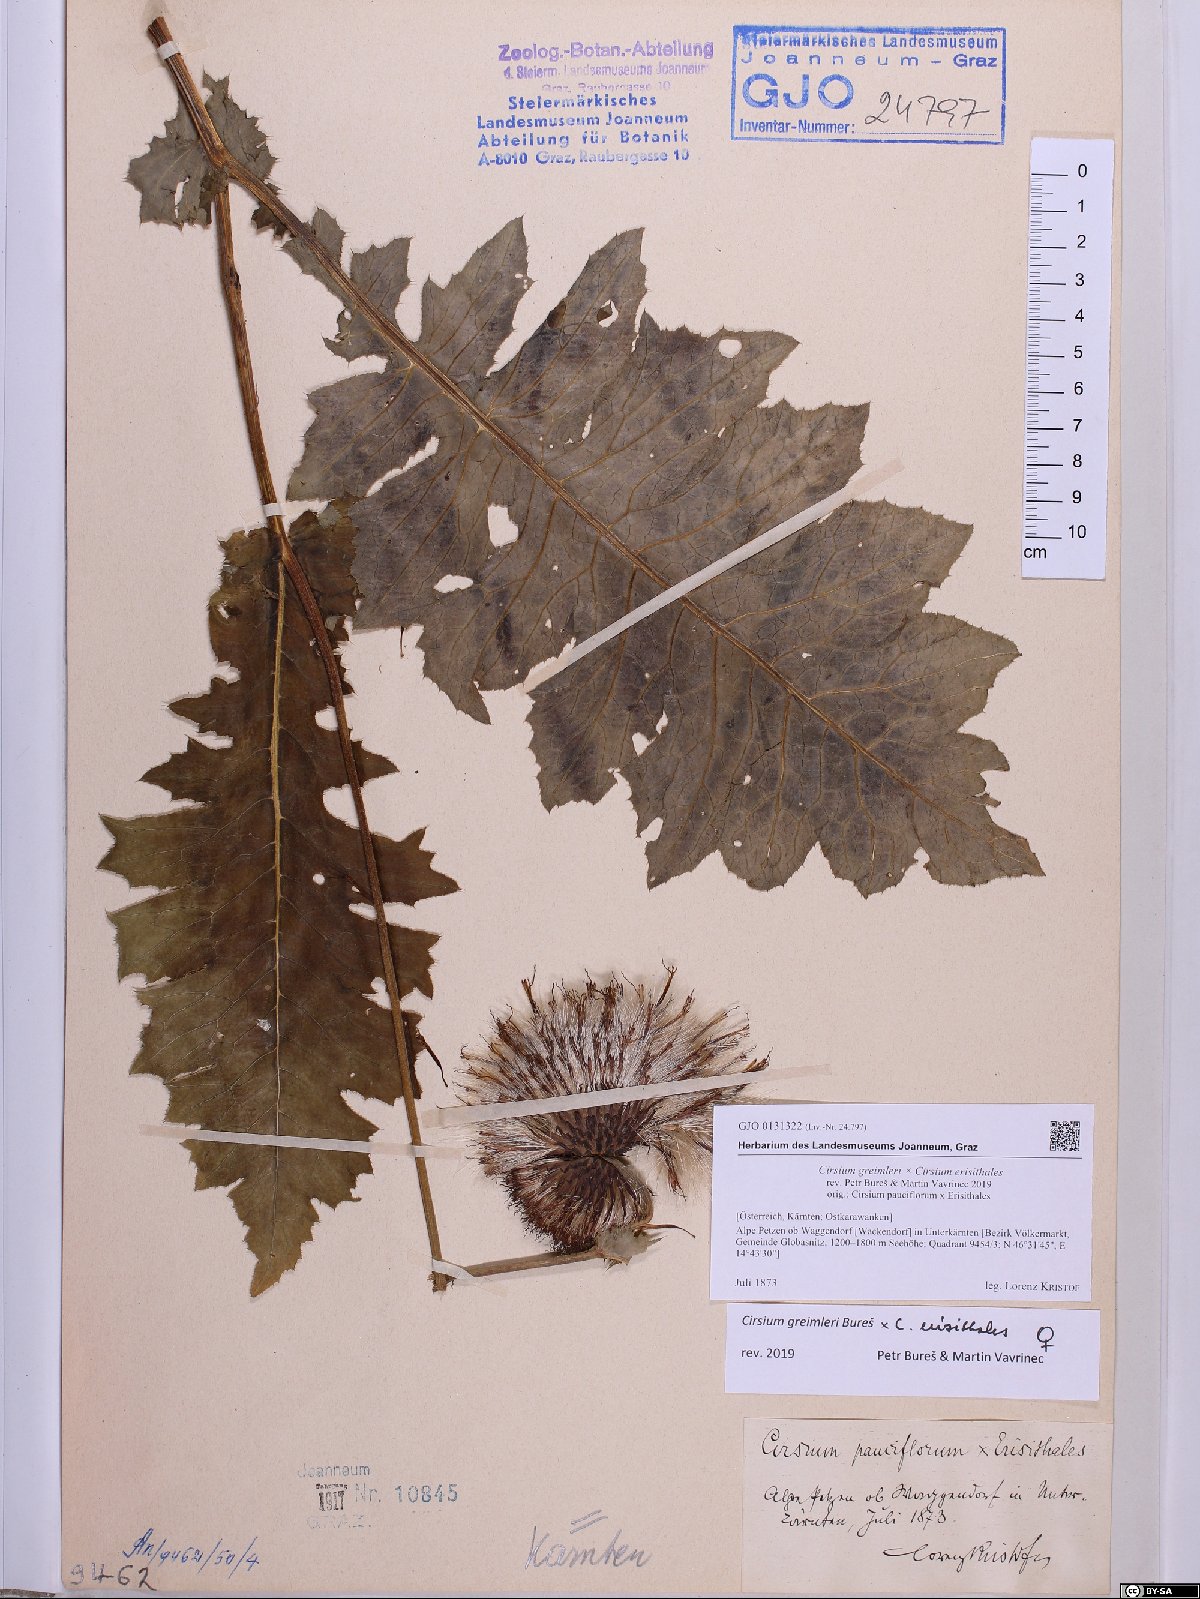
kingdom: Plantae
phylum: Tracheophyta
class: Magnoliopsida
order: Asterales
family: Asteraceae
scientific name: Asteraceae
